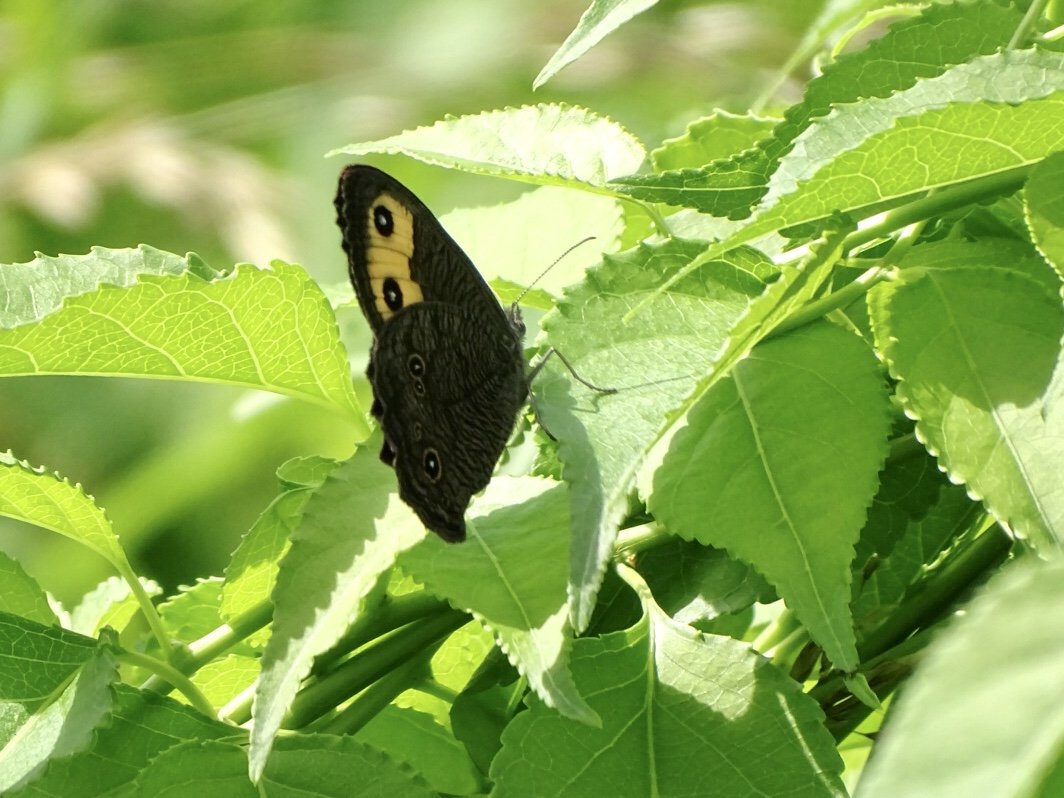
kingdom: Animalia
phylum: Arthropoda
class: Insecta
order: Lepidoptera
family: Nymphalidae
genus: Cercyonis
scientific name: Cercyonis pegala
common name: Common Wood-Nymph
